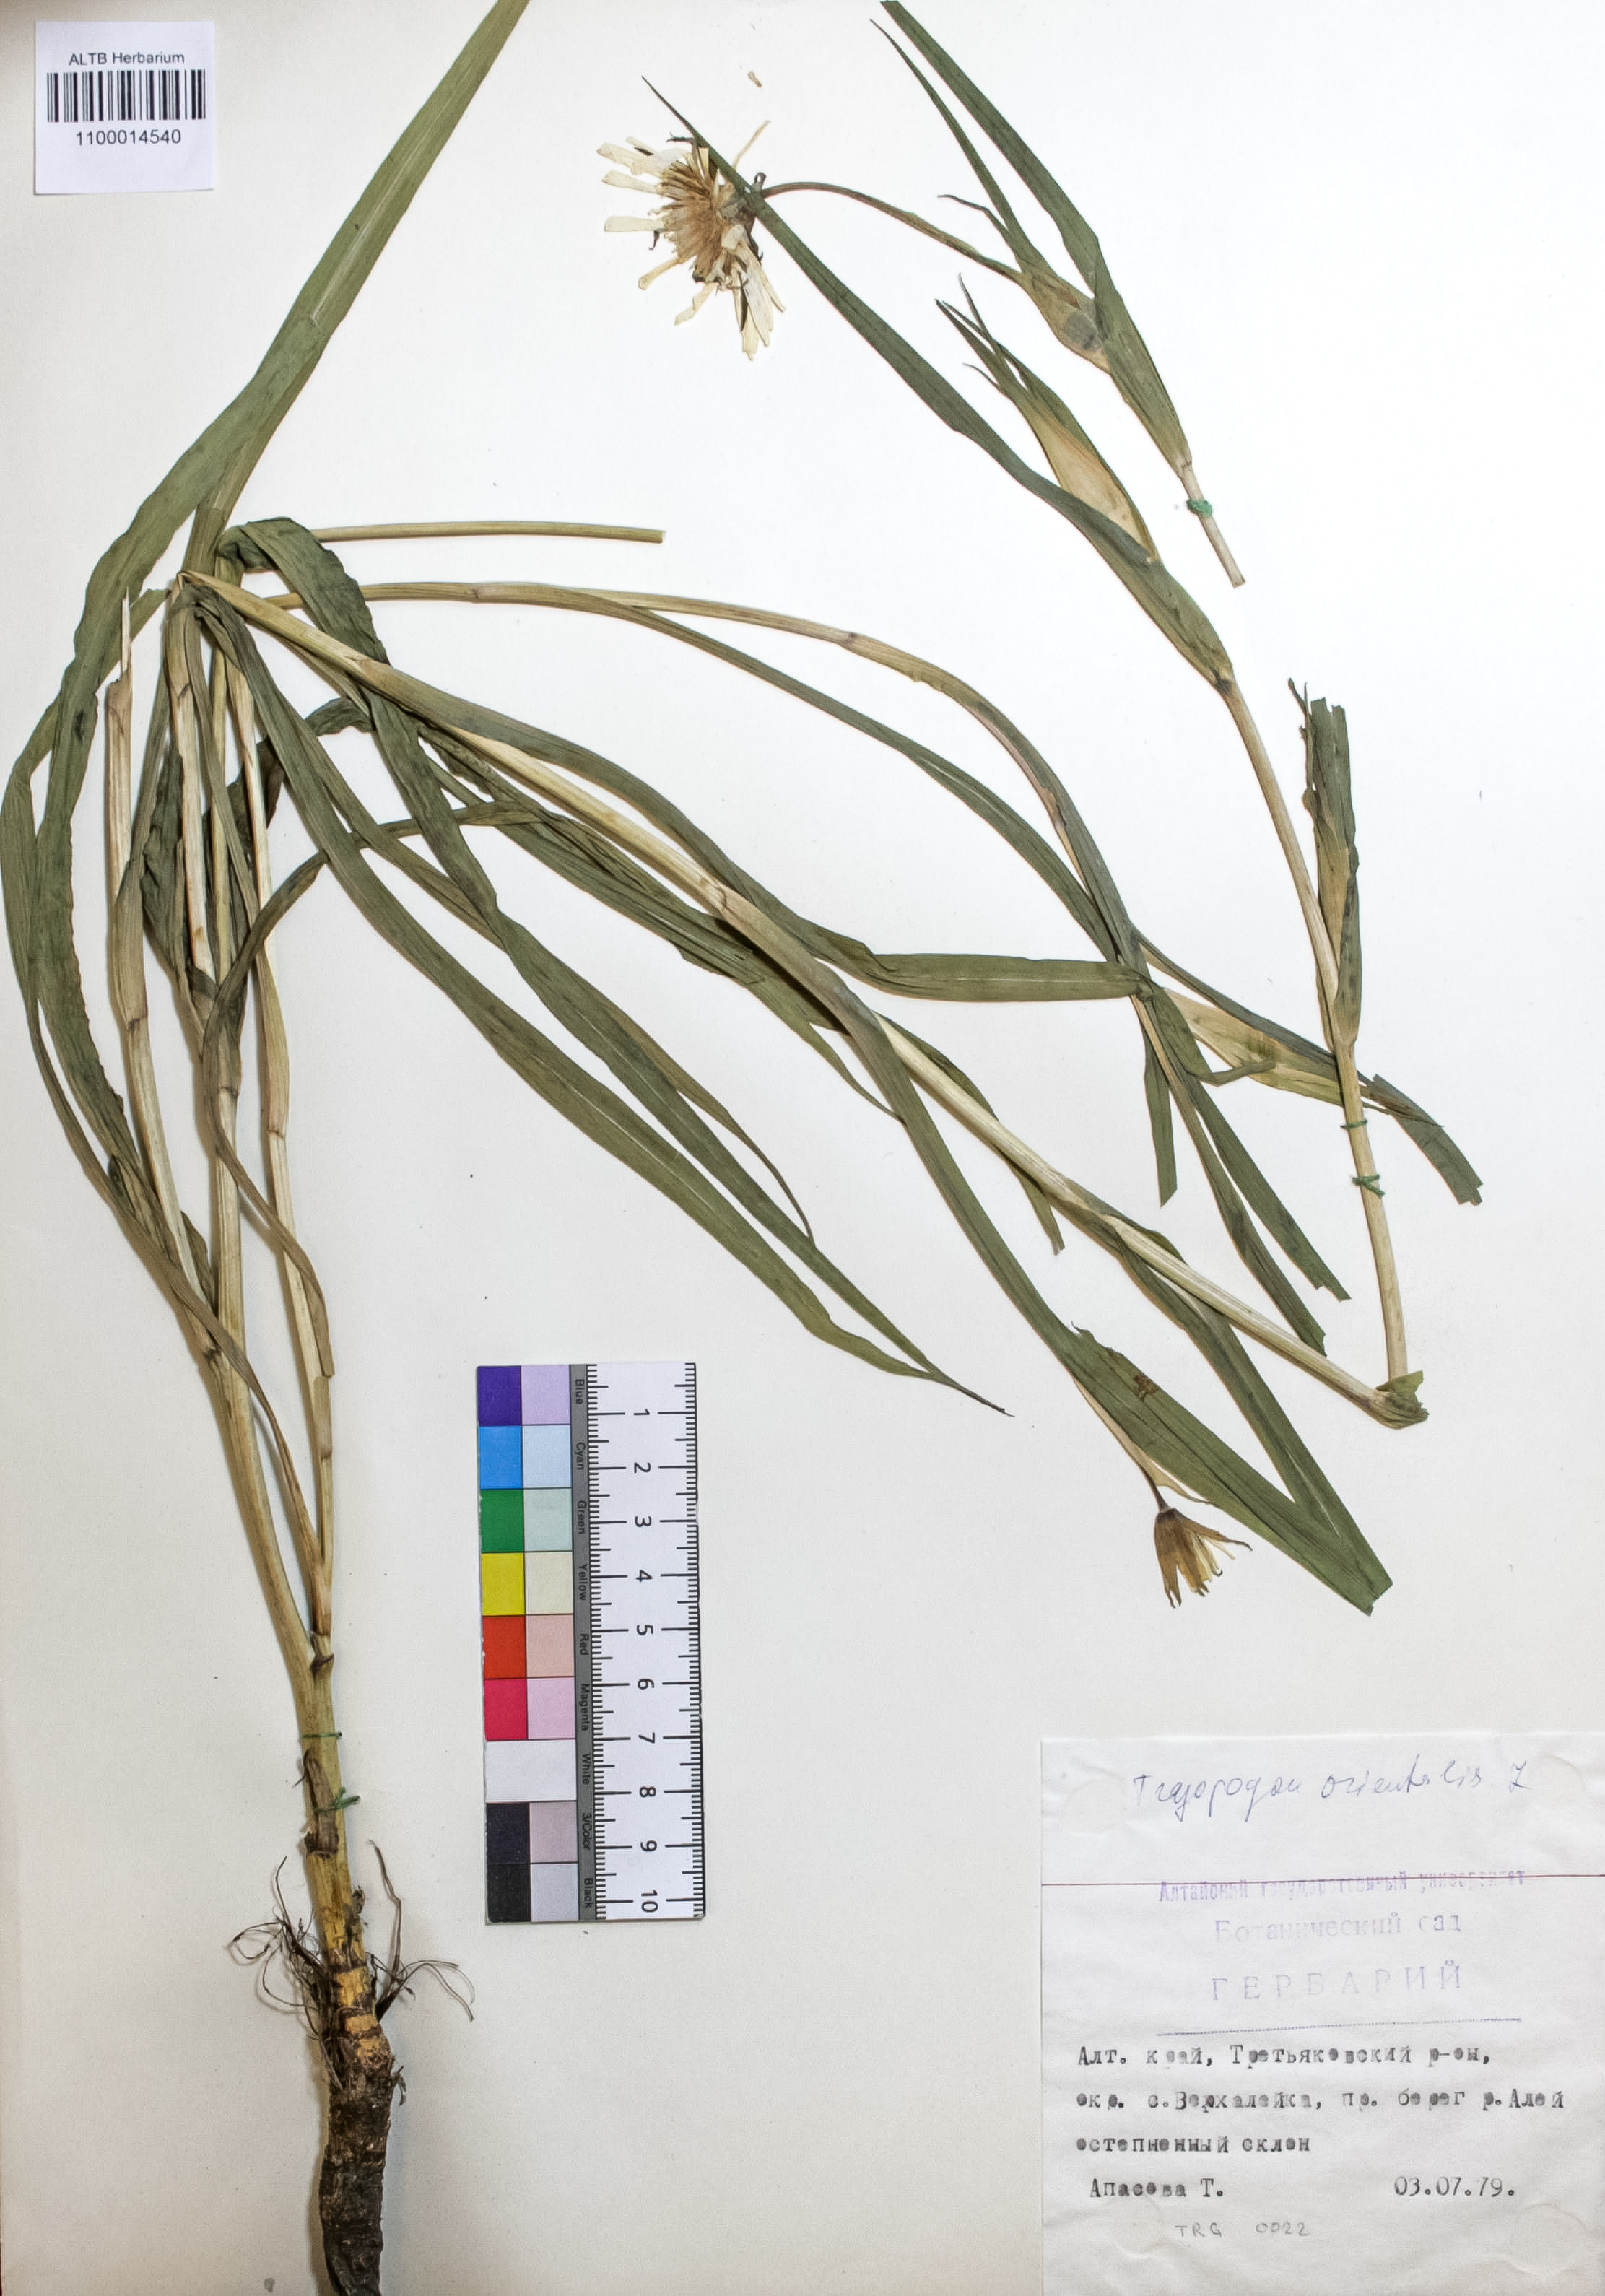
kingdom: Plantae
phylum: Tracheophyta
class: Magnoliopsida
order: Asterales
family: Asteraceae
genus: Tragopogon
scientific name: Tragopogon orientalis
